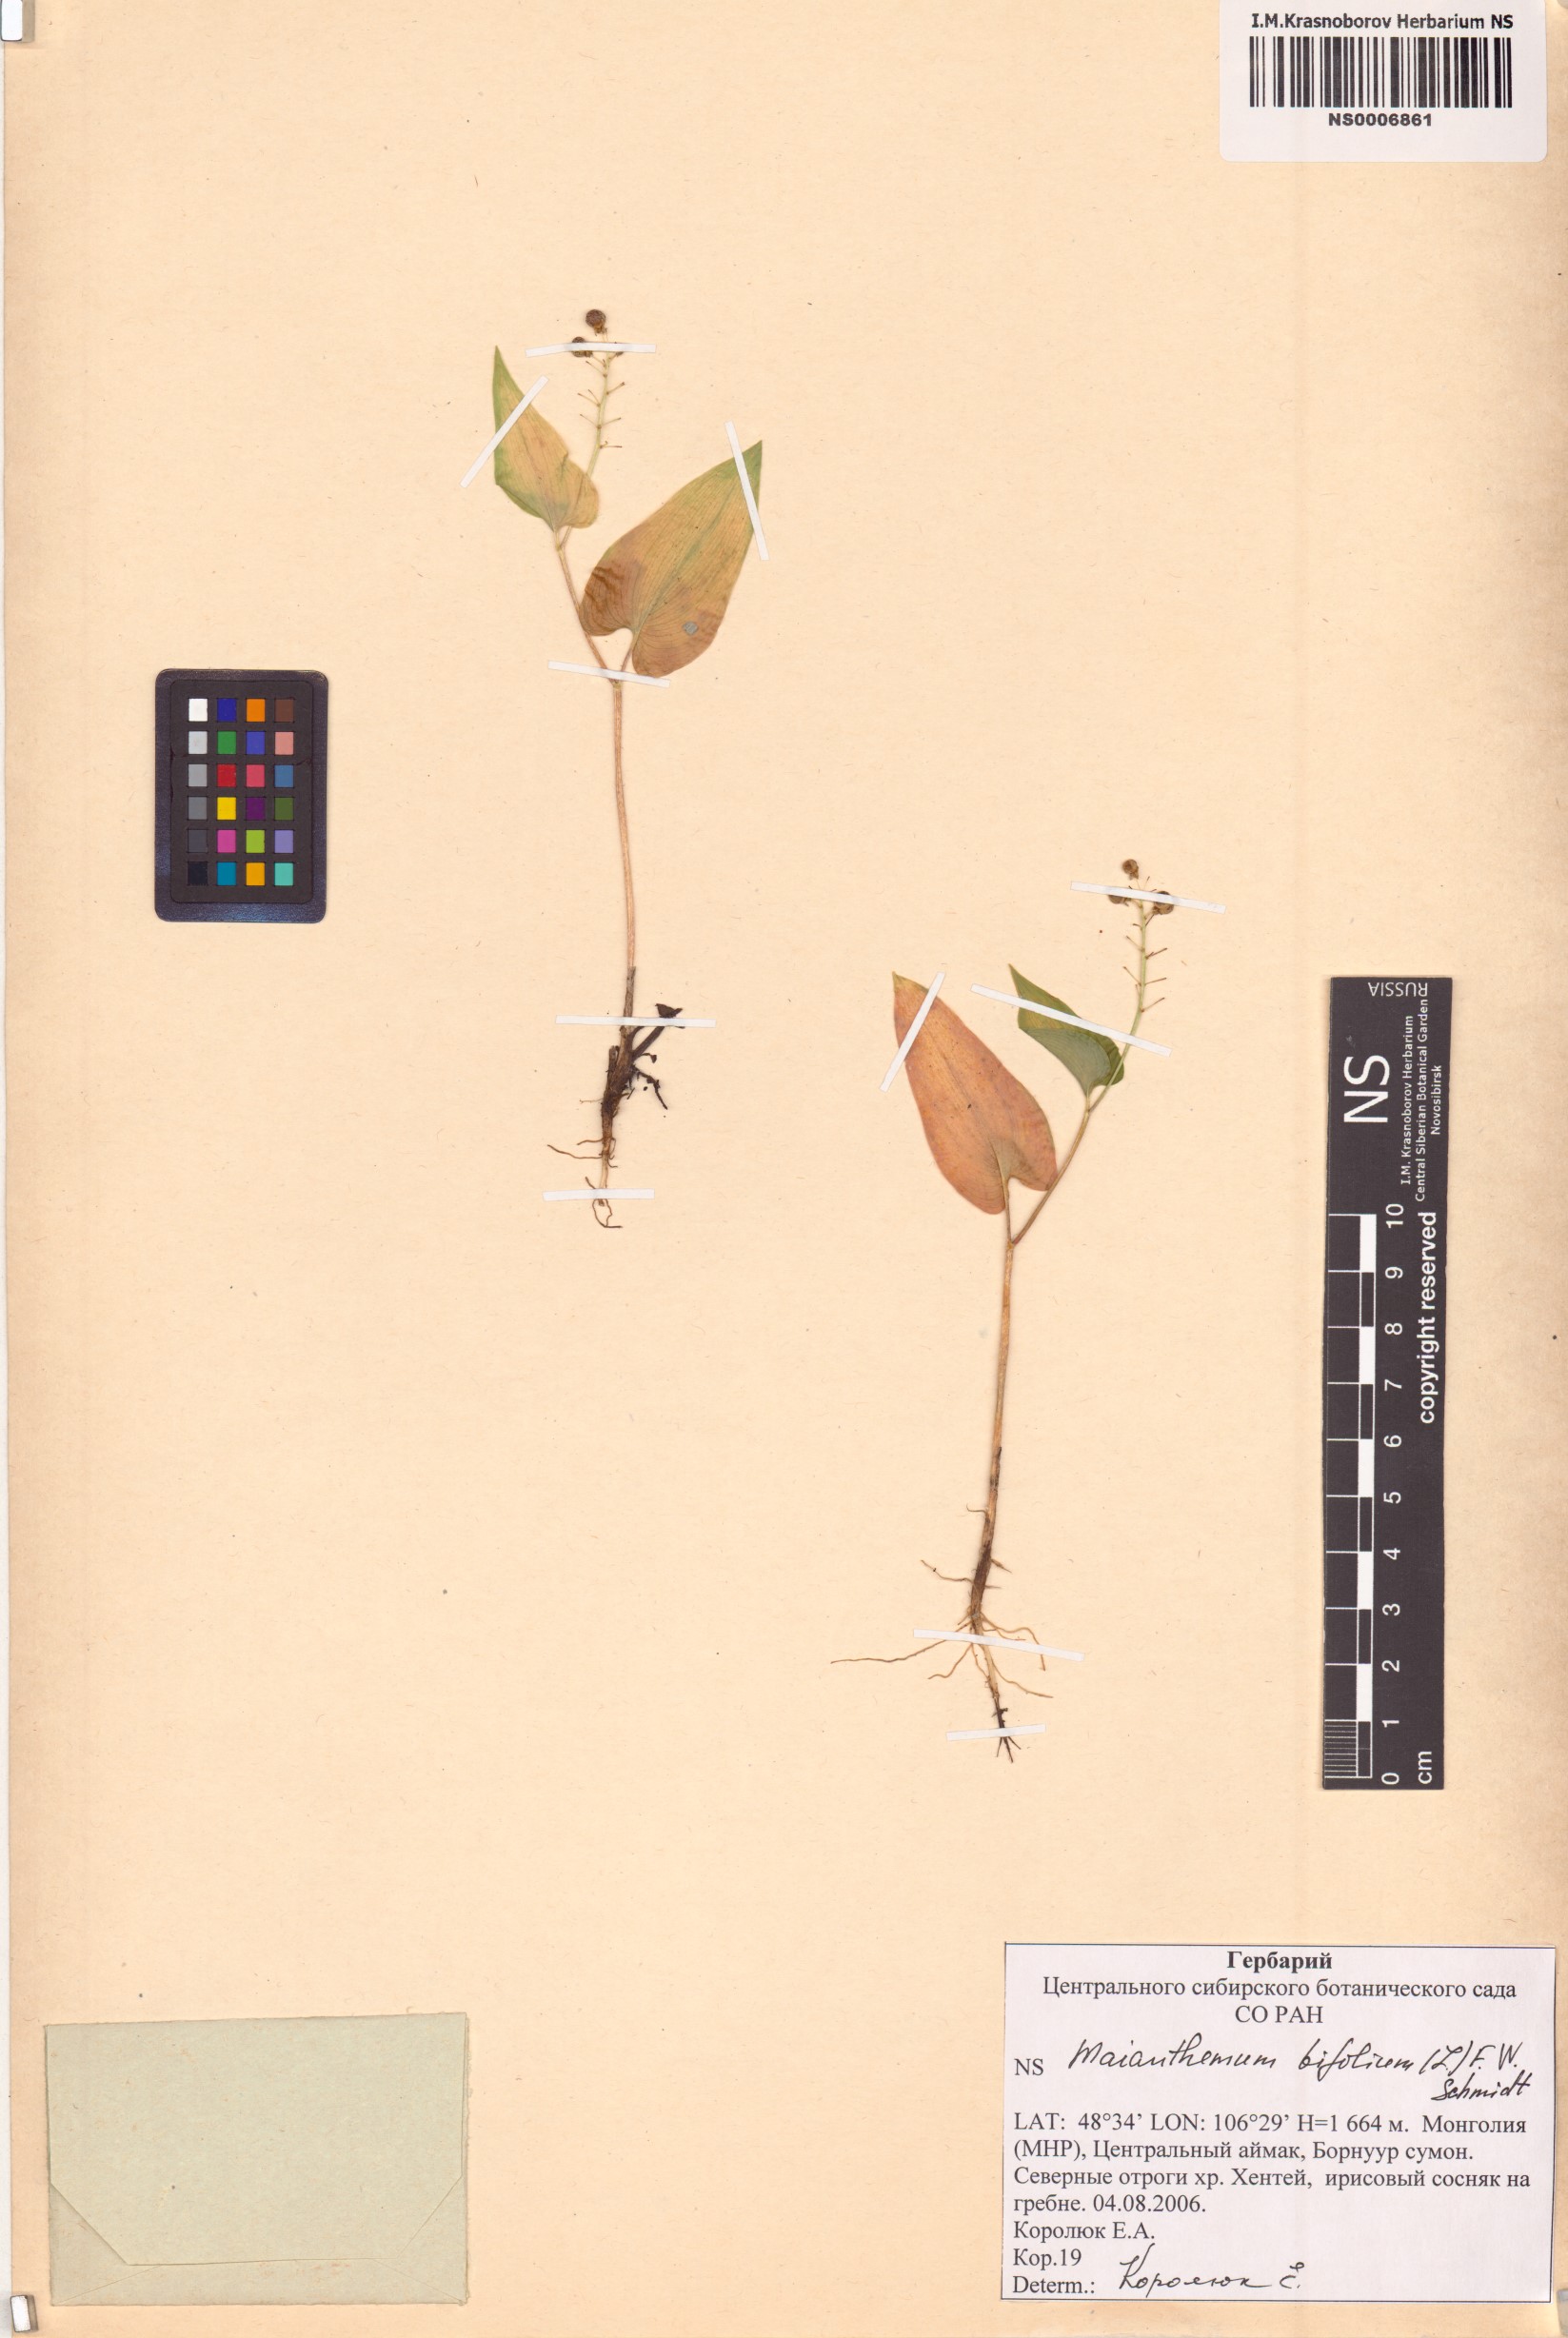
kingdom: Plantae
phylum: Tracheophyta
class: Liliopsida
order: Asparagales
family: Asparagaceae
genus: Maianthemum
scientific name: Maianthemum bifolium
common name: May lily
